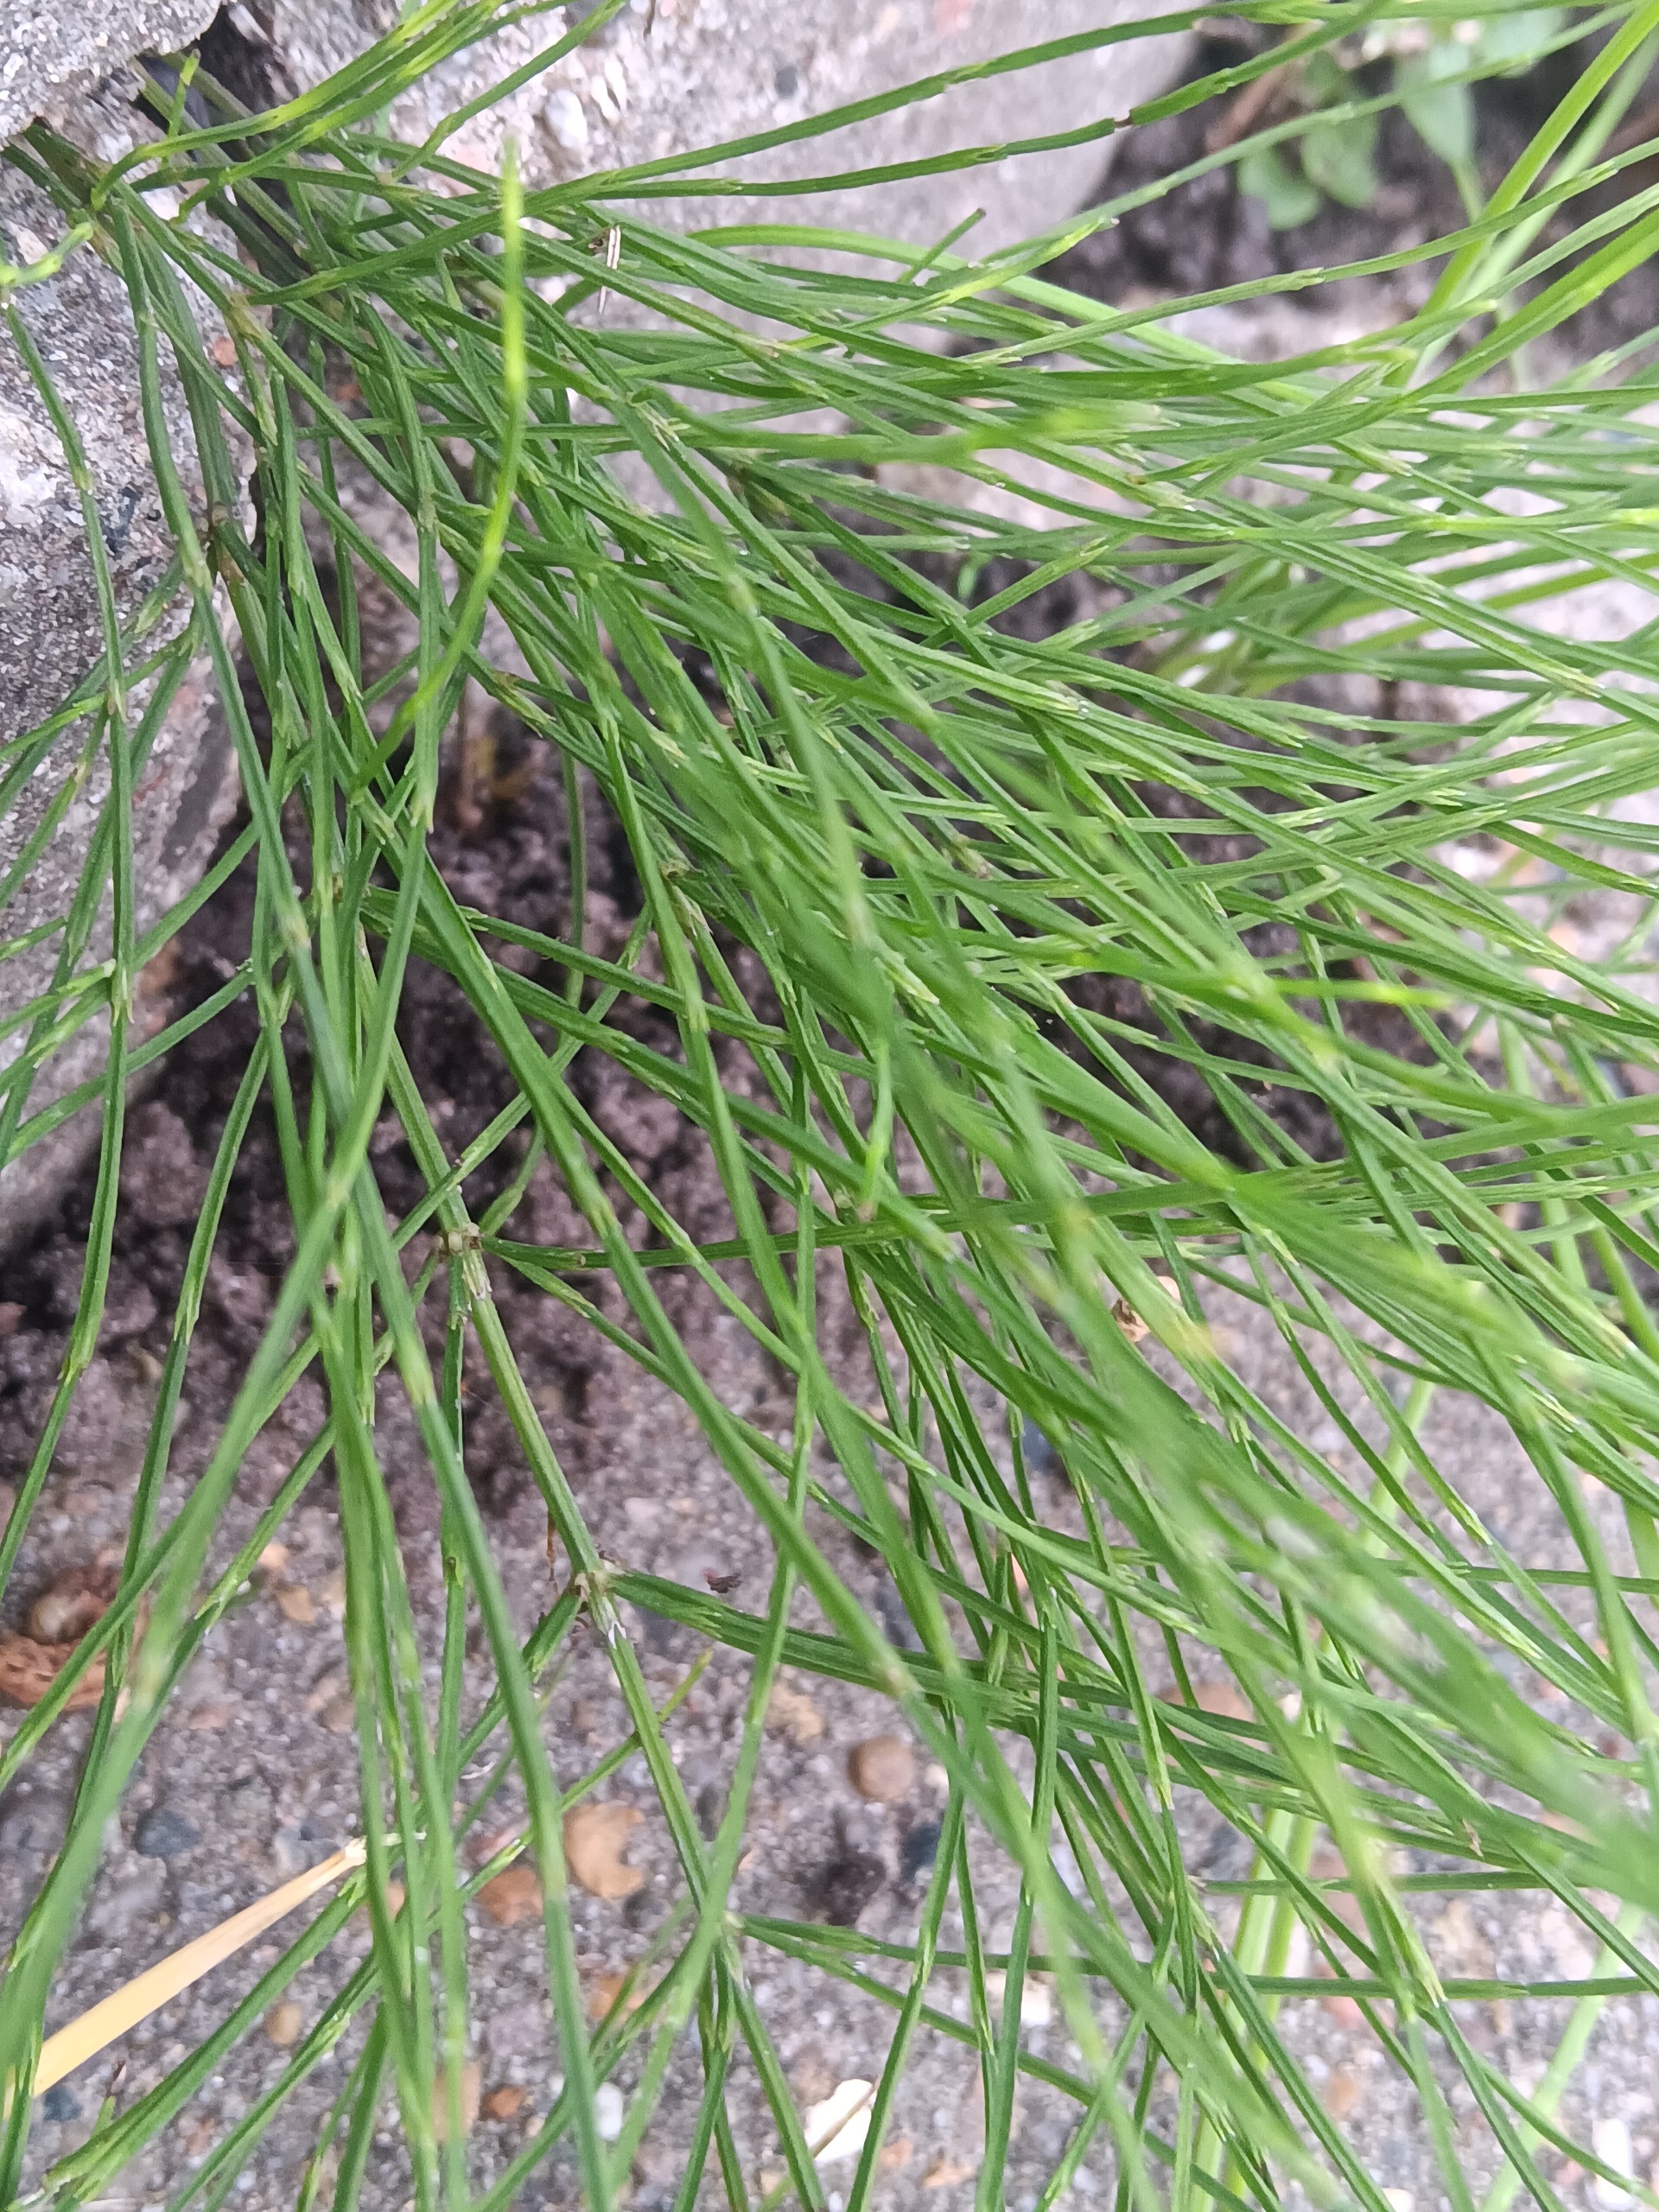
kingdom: Plantae
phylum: Tracheophyta
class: Polypodiopsida
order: Equisetales
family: Equisetaceae
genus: Equisetum
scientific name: Equisetum arvense
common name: Ager-padderok
